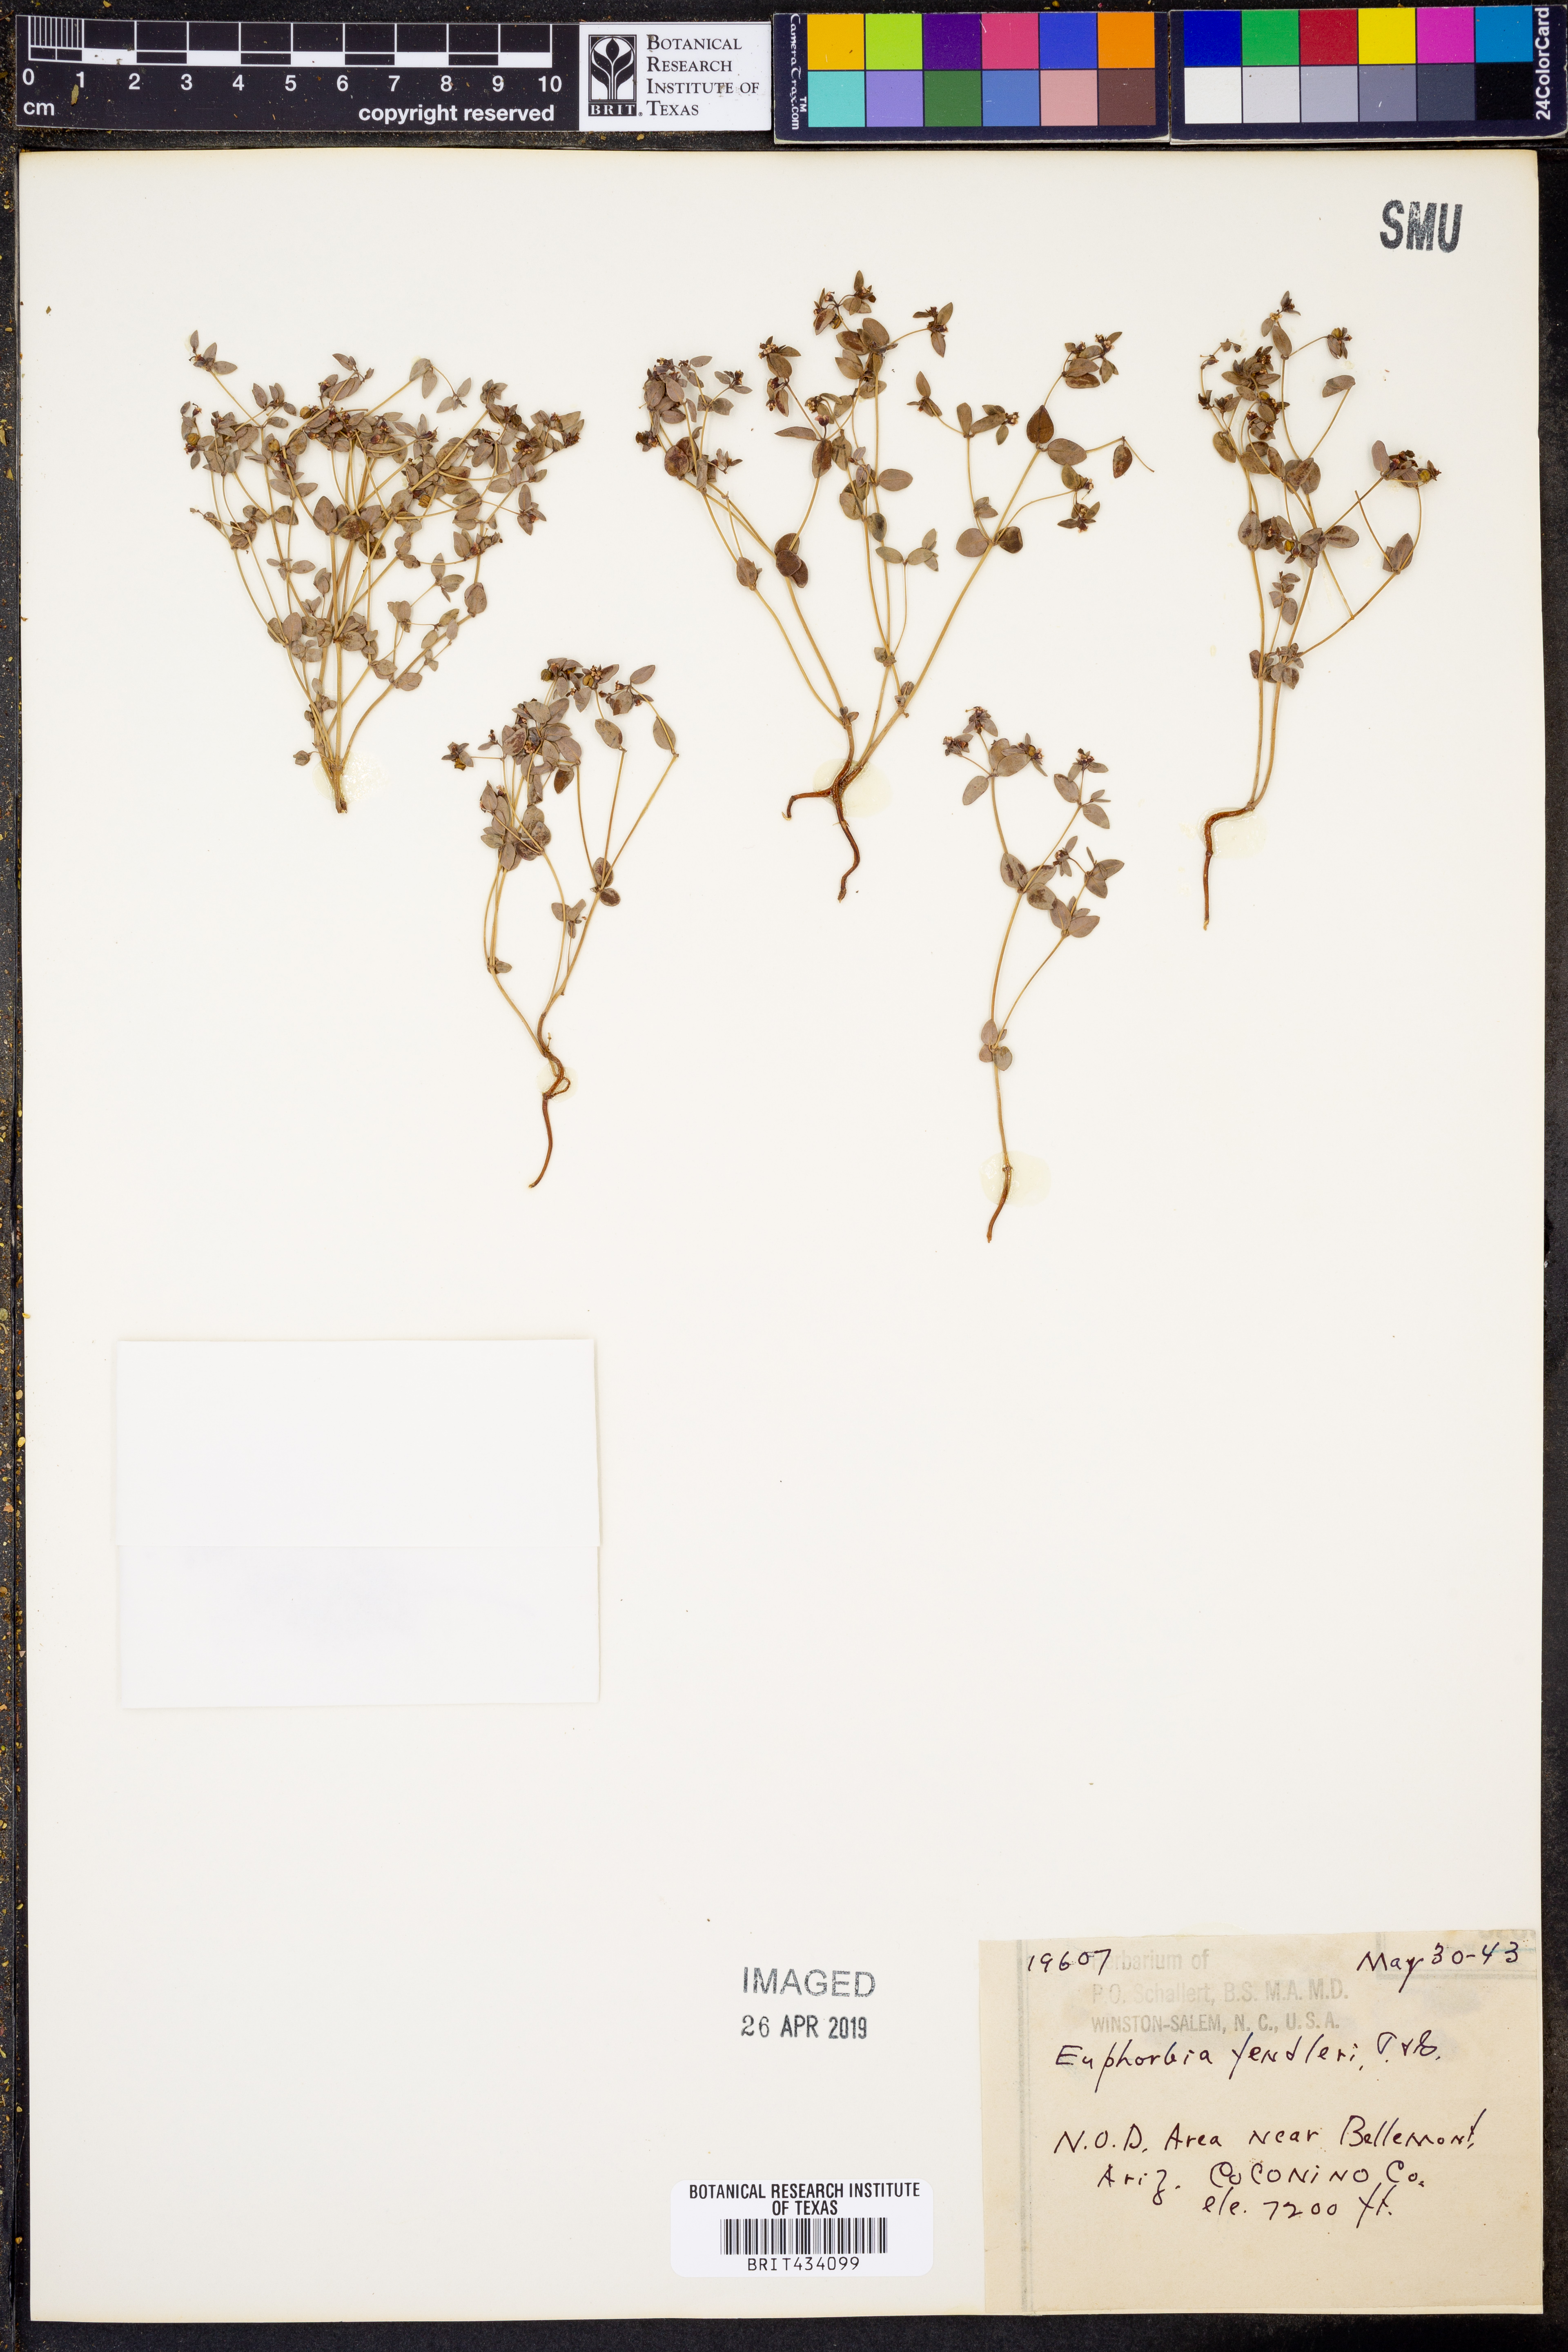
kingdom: Plantae
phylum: Tracheophyta
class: Magnoliopsida
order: Malpighiales
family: Euphorbiaceae
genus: Euphorbia
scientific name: Euphorbia fendleri
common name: Fendler's euphorbia
